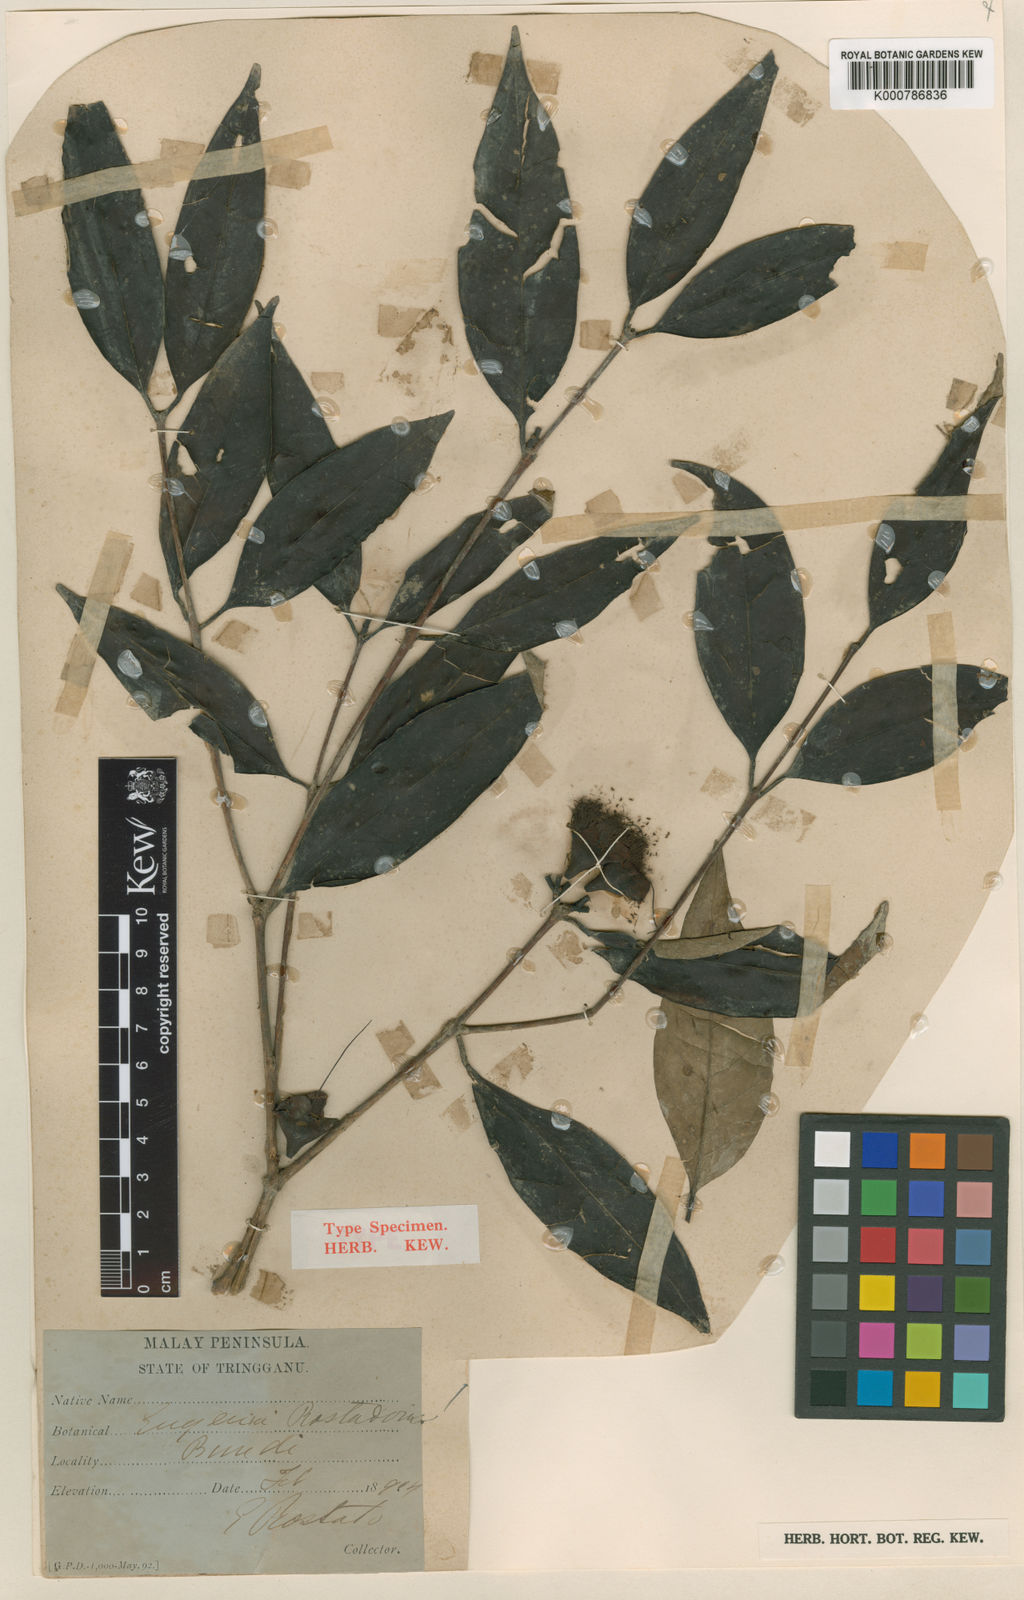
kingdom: Plantae
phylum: Tracheophyta
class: Magnoliopsida
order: Myrtales
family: Myrtaceae
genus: Syzygium
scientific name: Syzygium rostadonis
